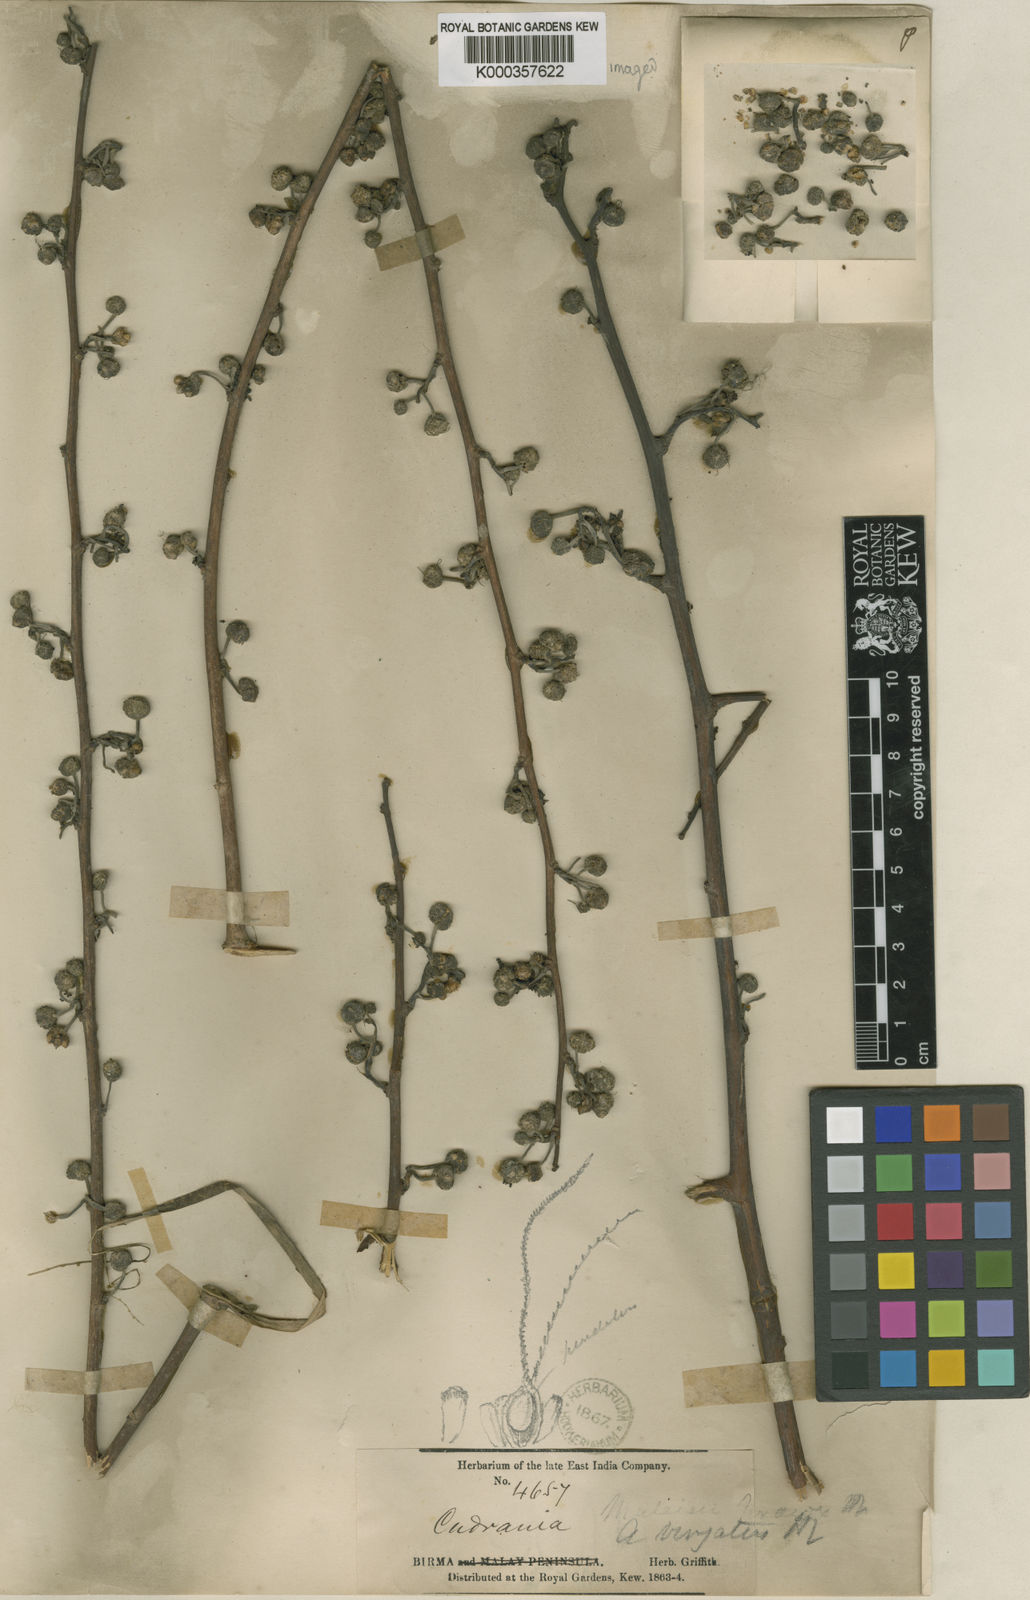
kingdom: Plantae
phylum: Tracheophyta
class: Magnoliopsida
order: Rosales
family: Moraceae
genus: Allaeanthus
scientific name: Allaeanthus kurzii
